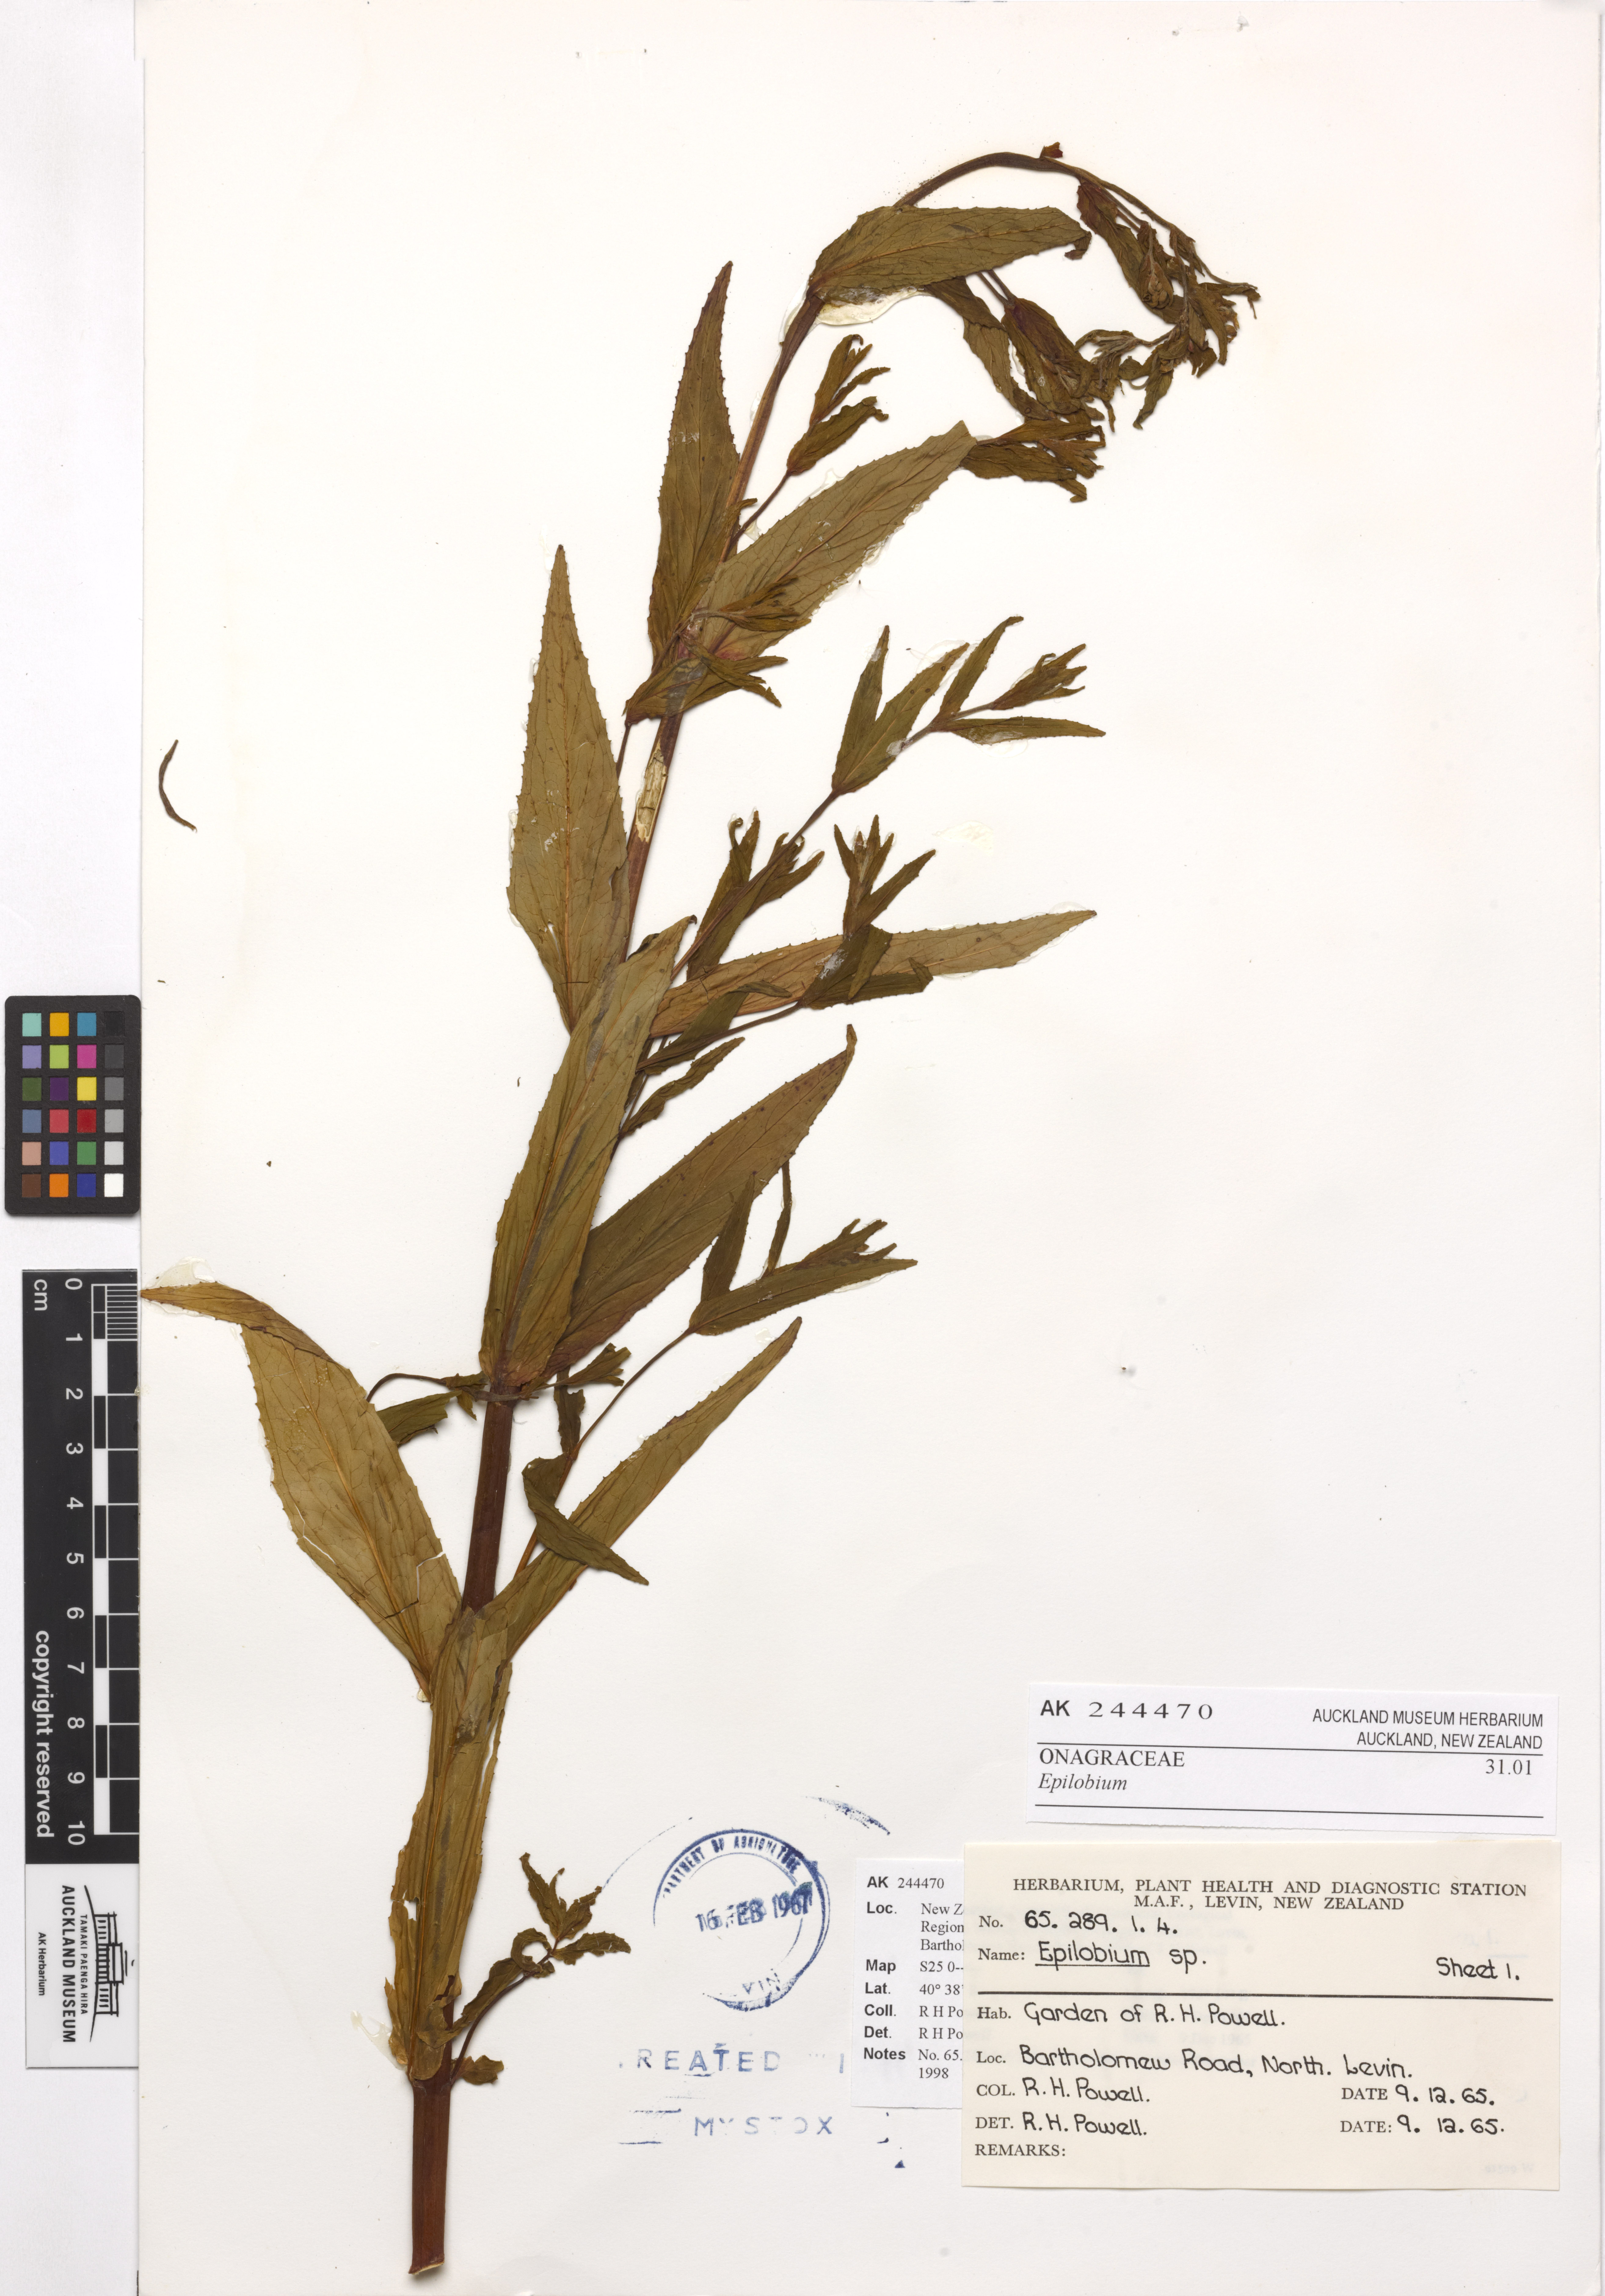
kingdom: Plantae
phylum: Tracheophyta
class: Magnoliopsida
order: Myrtales
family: Onagraceae
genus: Epilobium
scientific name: Epilobium ciliatum
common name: American willowherb
